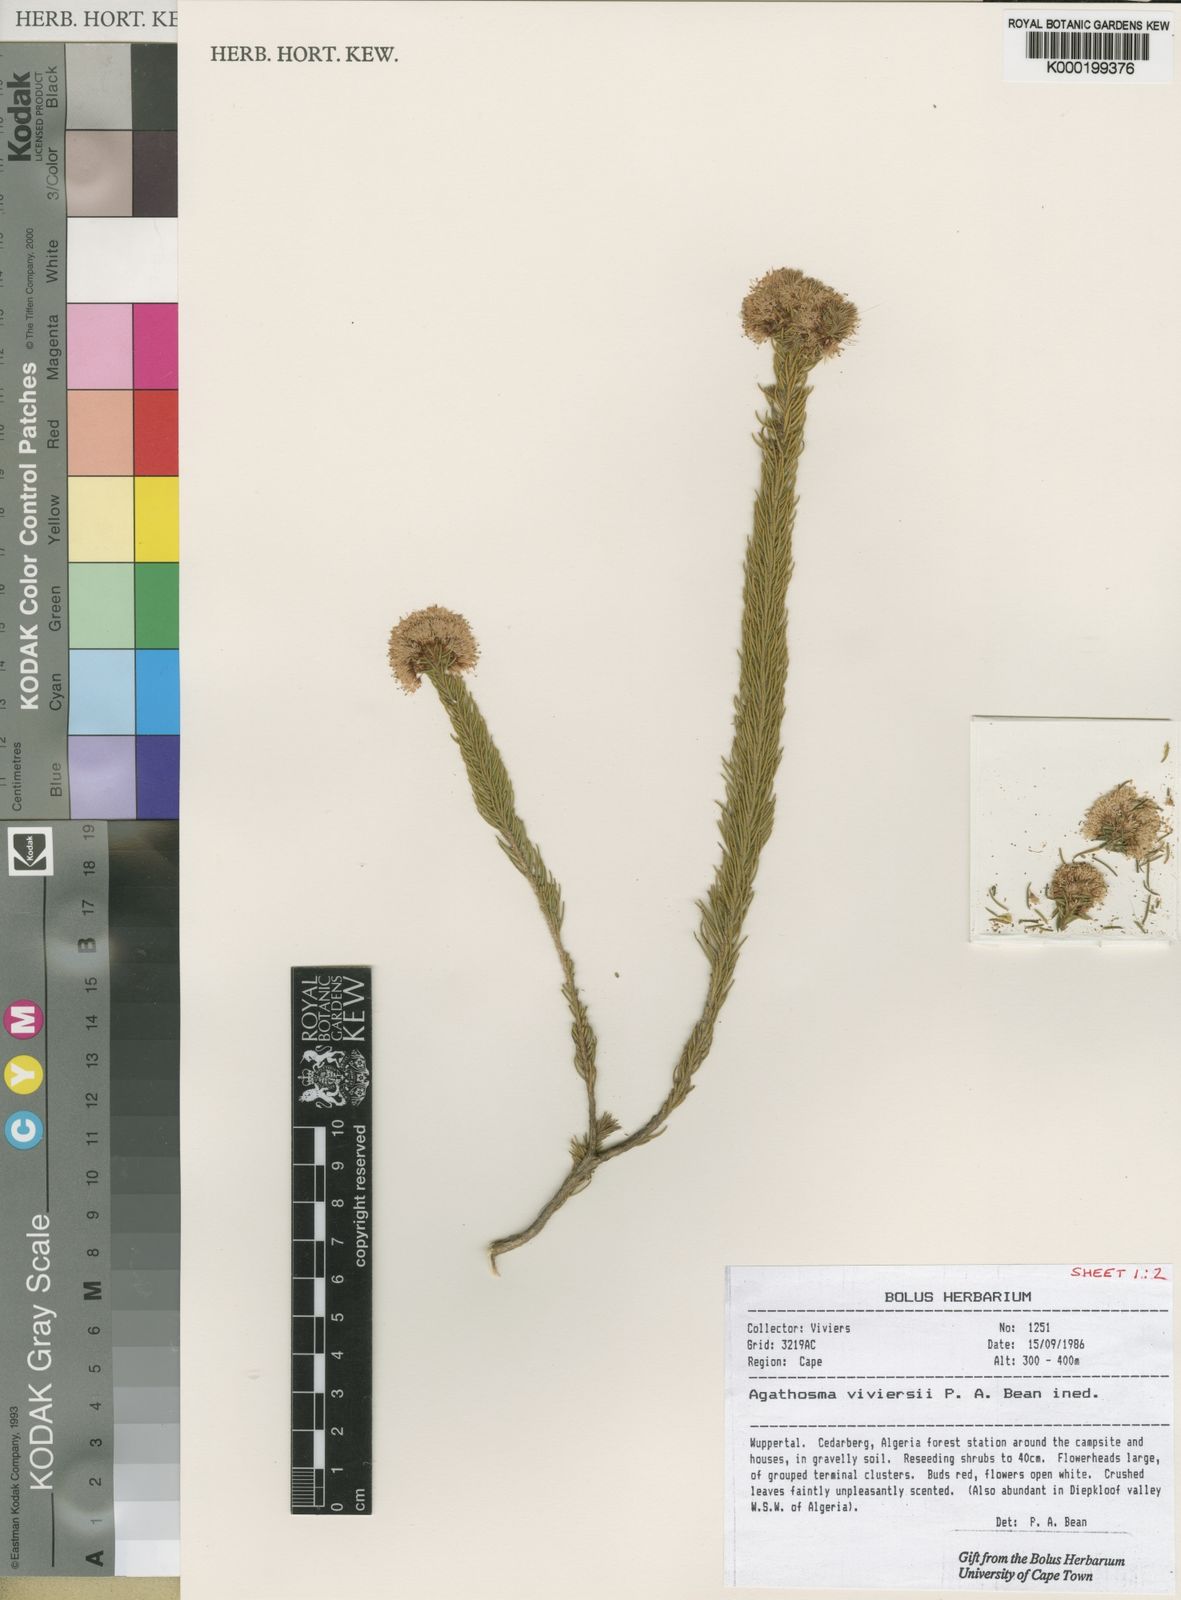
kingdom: Plantae
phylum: Tracheophyta
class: Magnoliopsida
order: Sapindales
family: Rutaceae
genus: Agathosma
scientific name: Agathosma
